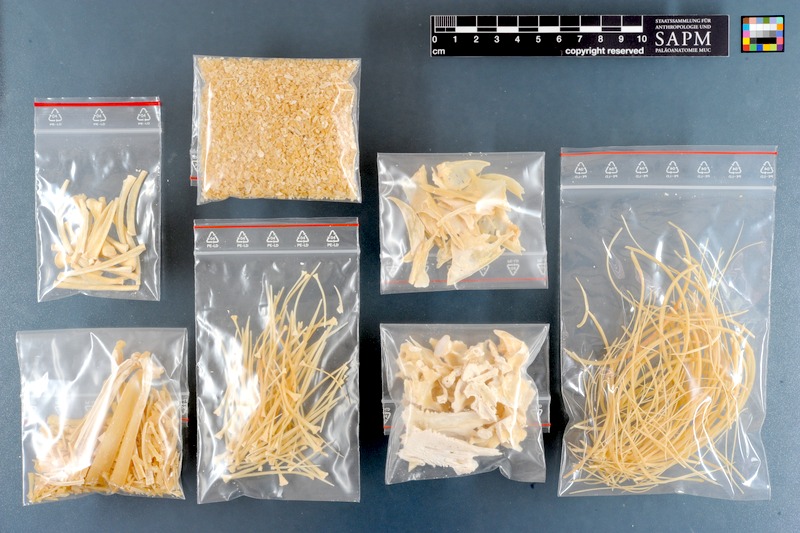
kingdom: Animalia
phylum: Chordata
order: Osteoglossiformes
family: Osteoglossidae
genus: Osteoglossum
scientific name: Osteoglossum bicirrhosum
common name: Arawana
